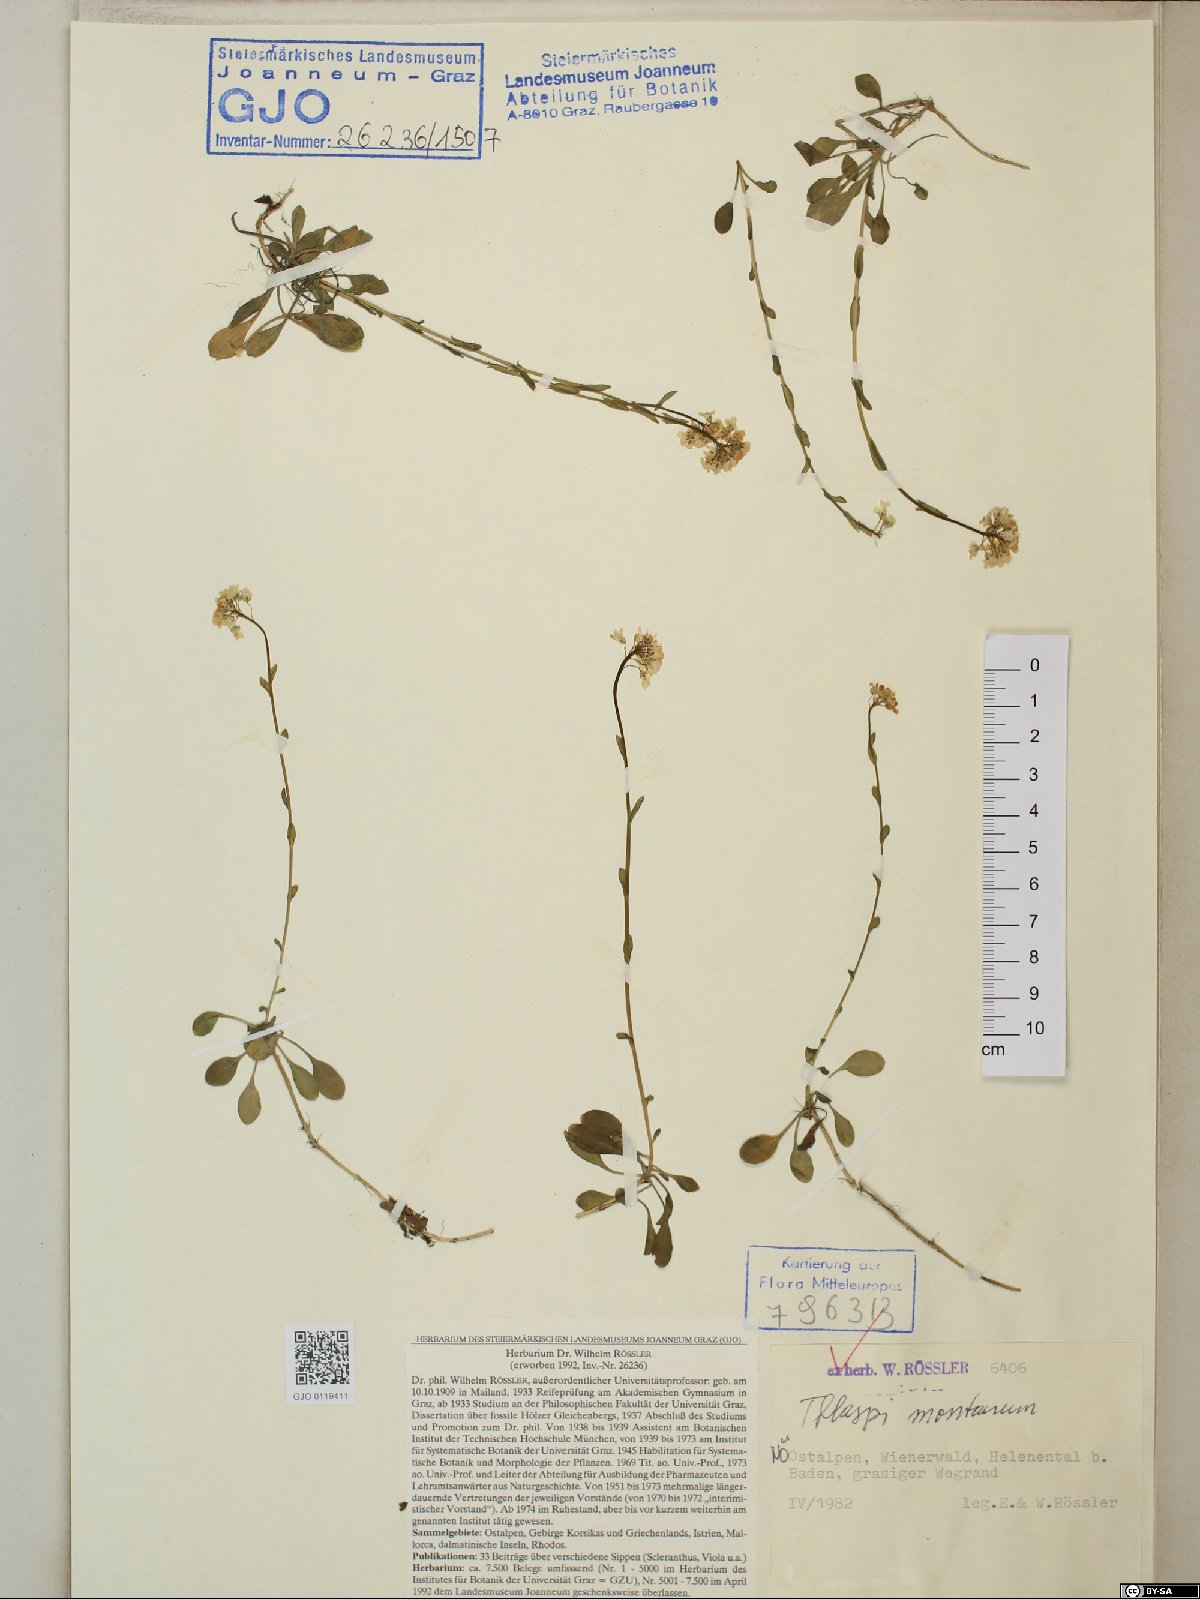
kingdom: Plantae
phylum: Tracheophyta
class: Magnoliopsida
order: Brassicales
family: Brassicaceae
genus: Noccaea
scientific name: Noccaea montana
